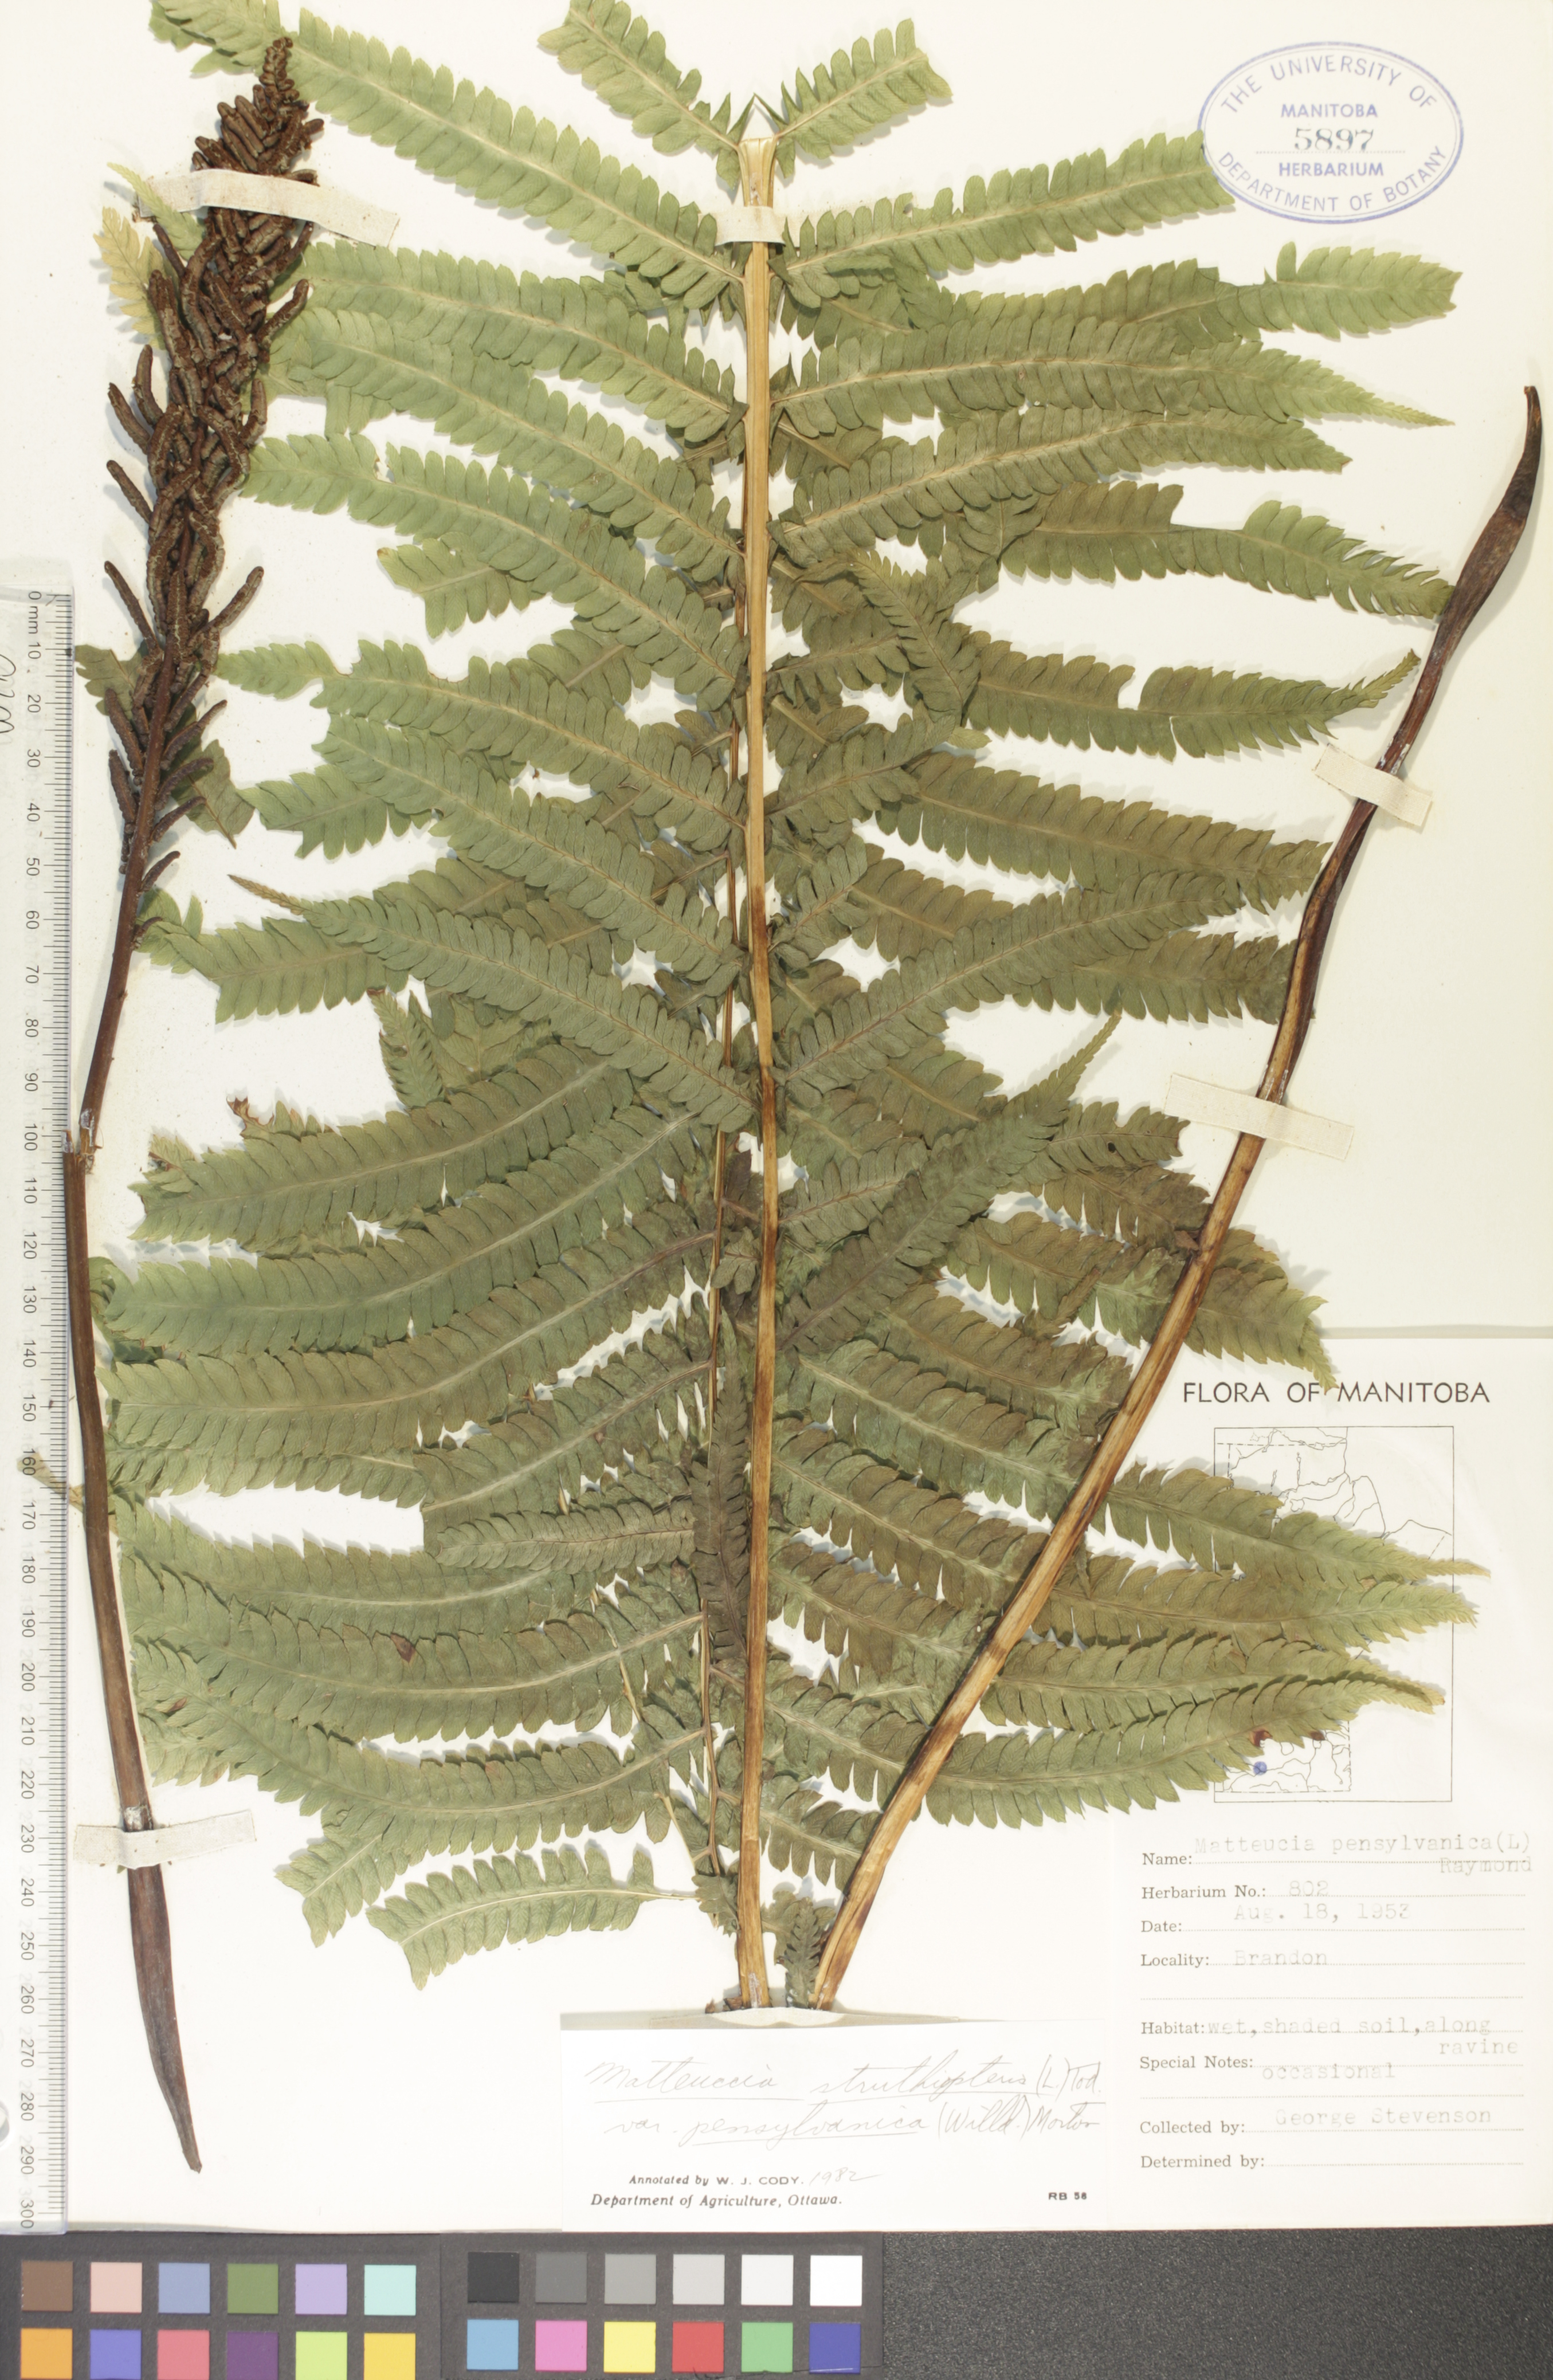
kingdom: Plantae
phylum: Tracheophyta
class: Polypodiopsida
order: Polypodiales
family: Onocleaceae
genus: Matteuccia
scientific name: Matteuccia pensylvanica
